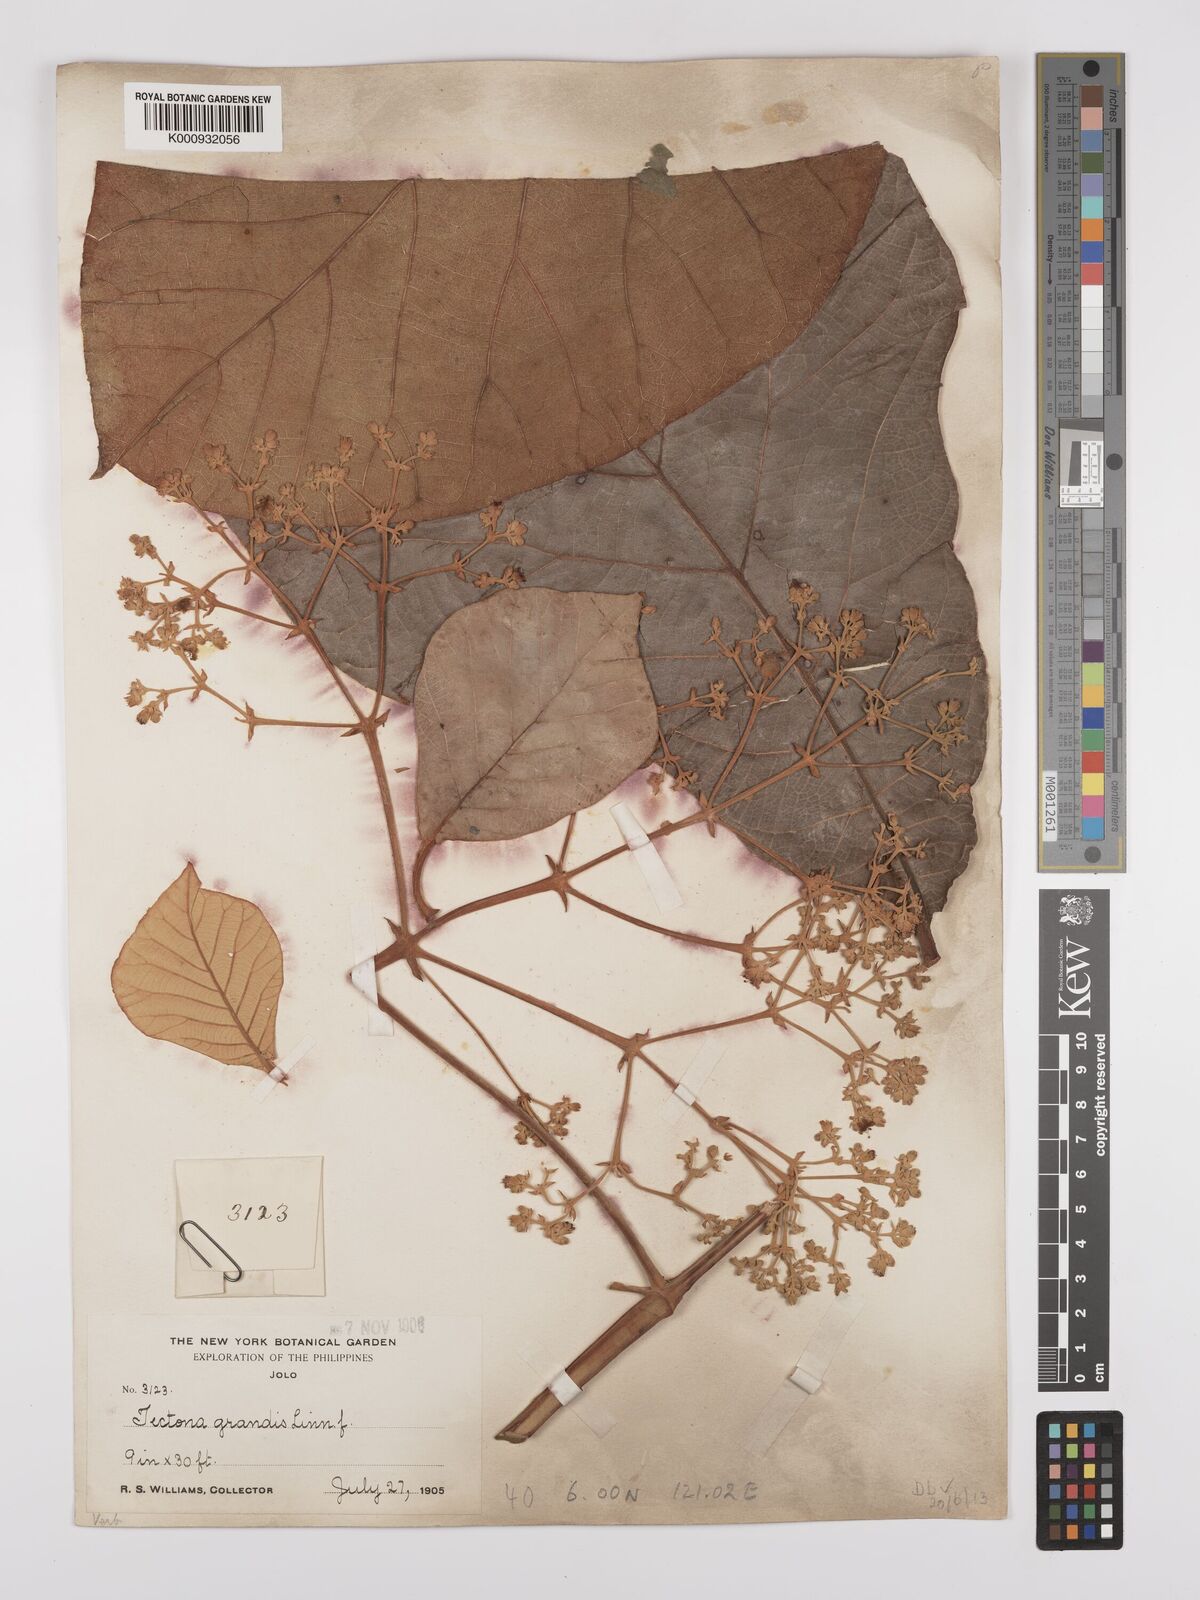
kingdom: Plantae
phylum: Tracheophyta
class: Magnoliopsida
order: Lamiales
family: Lamiaceae
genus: Tectona
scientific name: Tectona grandis
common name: Teak
